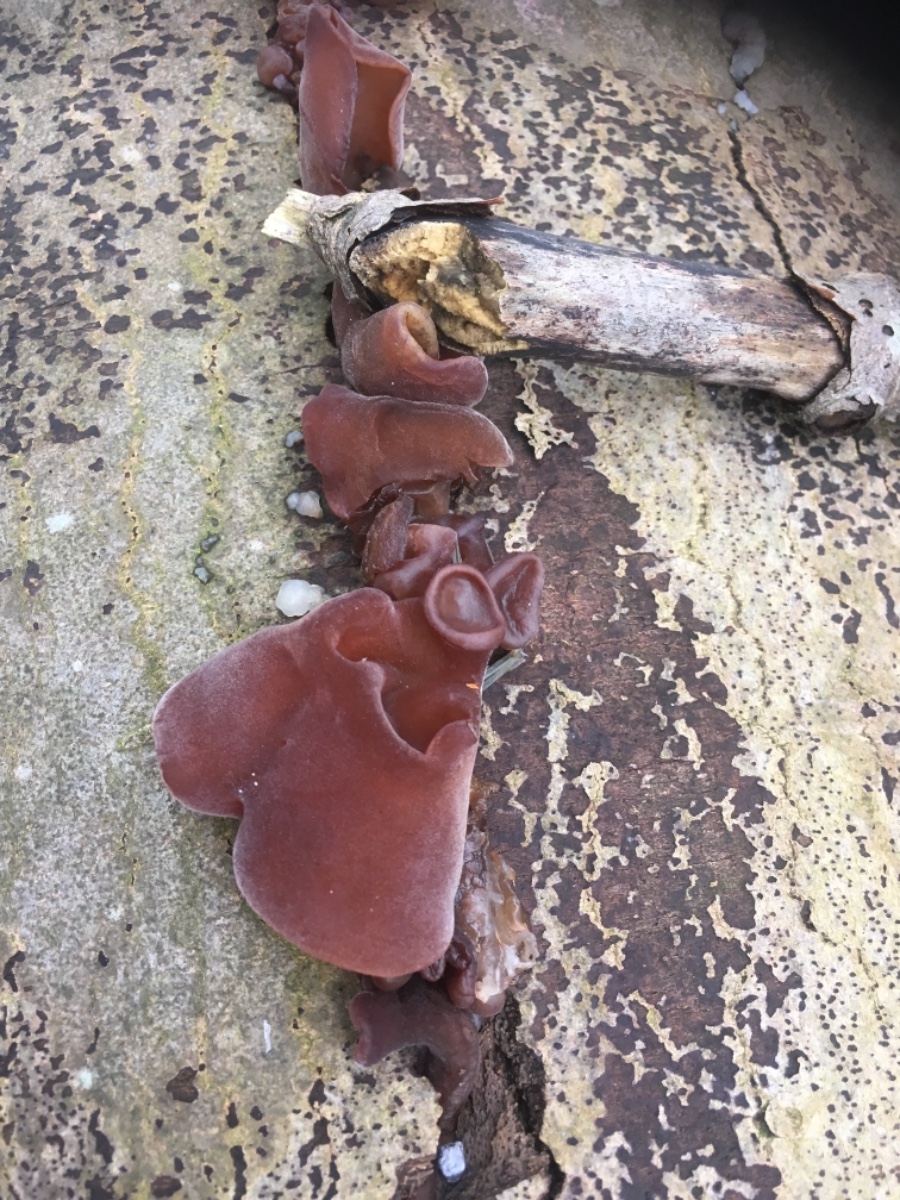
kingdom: Fungi
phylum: Basidiomycota
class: Agaricomycetes
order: Auriculariales
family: Auriculariaceae
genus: Auricularia
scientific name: Auricularia auricula-judae
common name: almindelig judasøre
